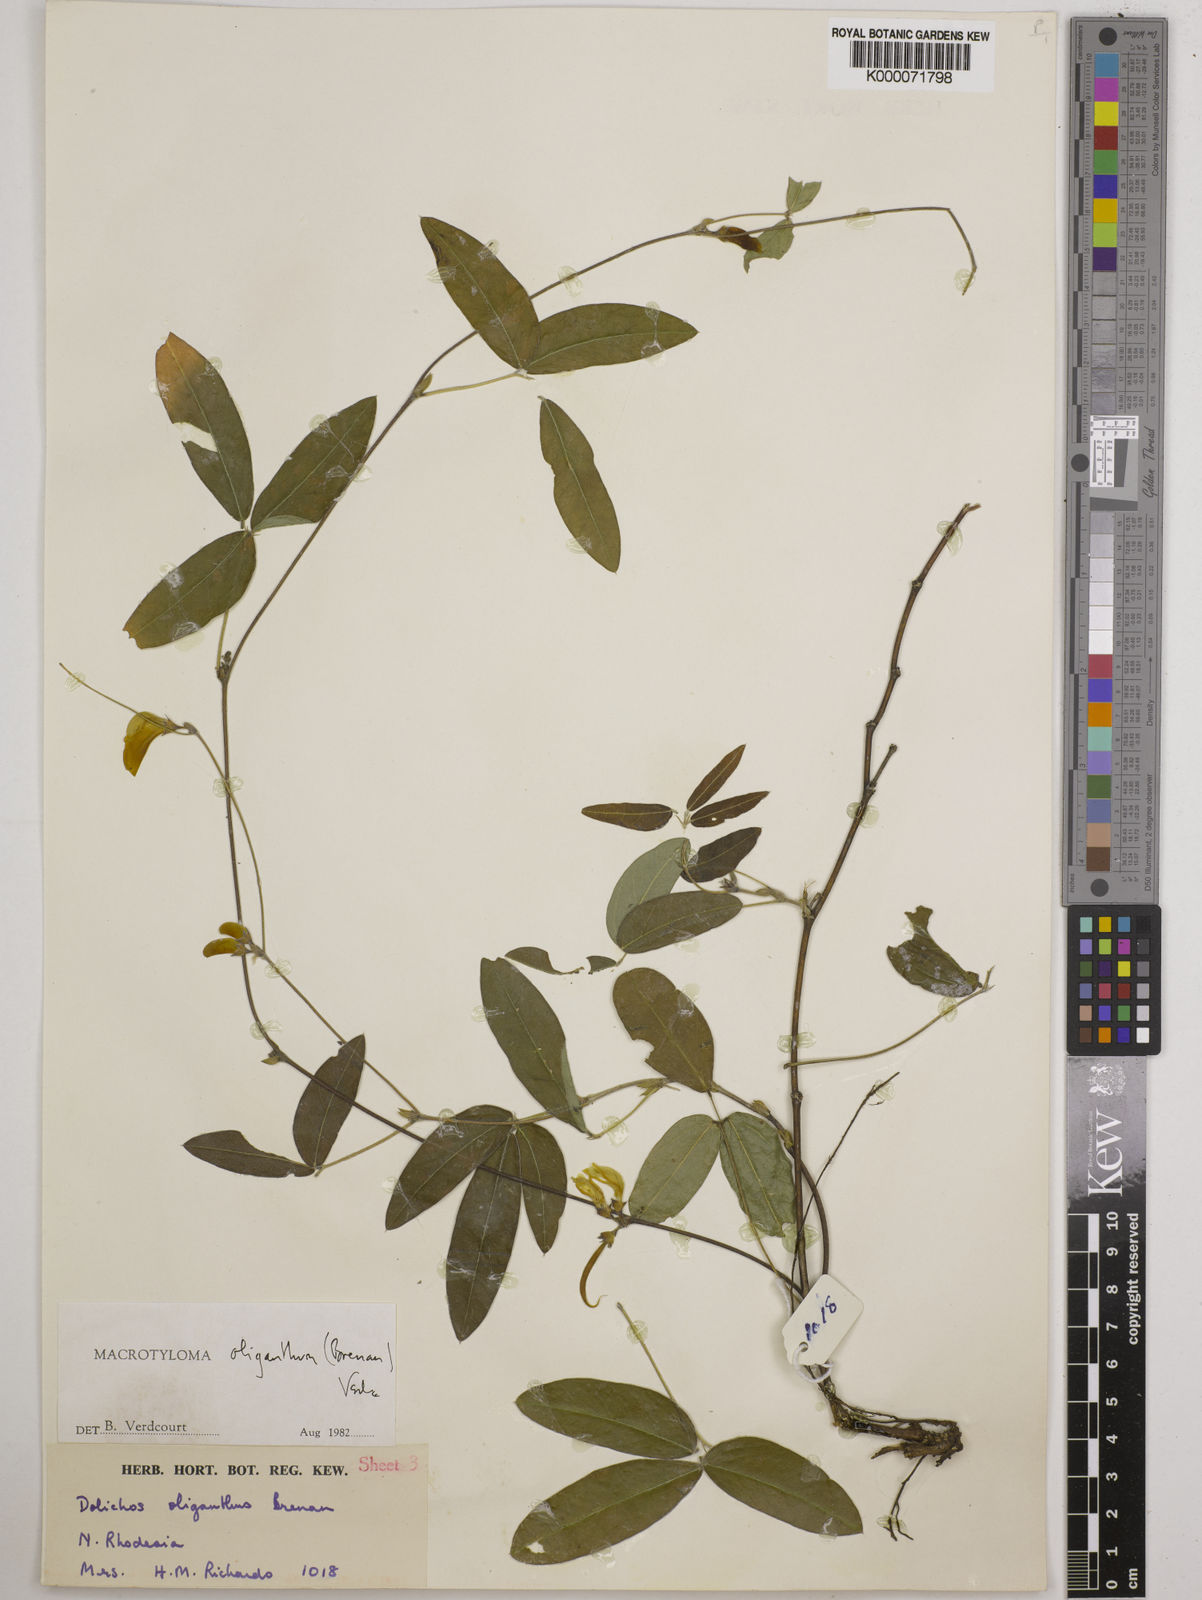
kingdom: Plantae
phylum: Tracheophyta
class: Magnoliopsida
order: Fabales
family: Fabaceae
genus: Macrotyloma
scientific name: Macrotyloma oliganthum
